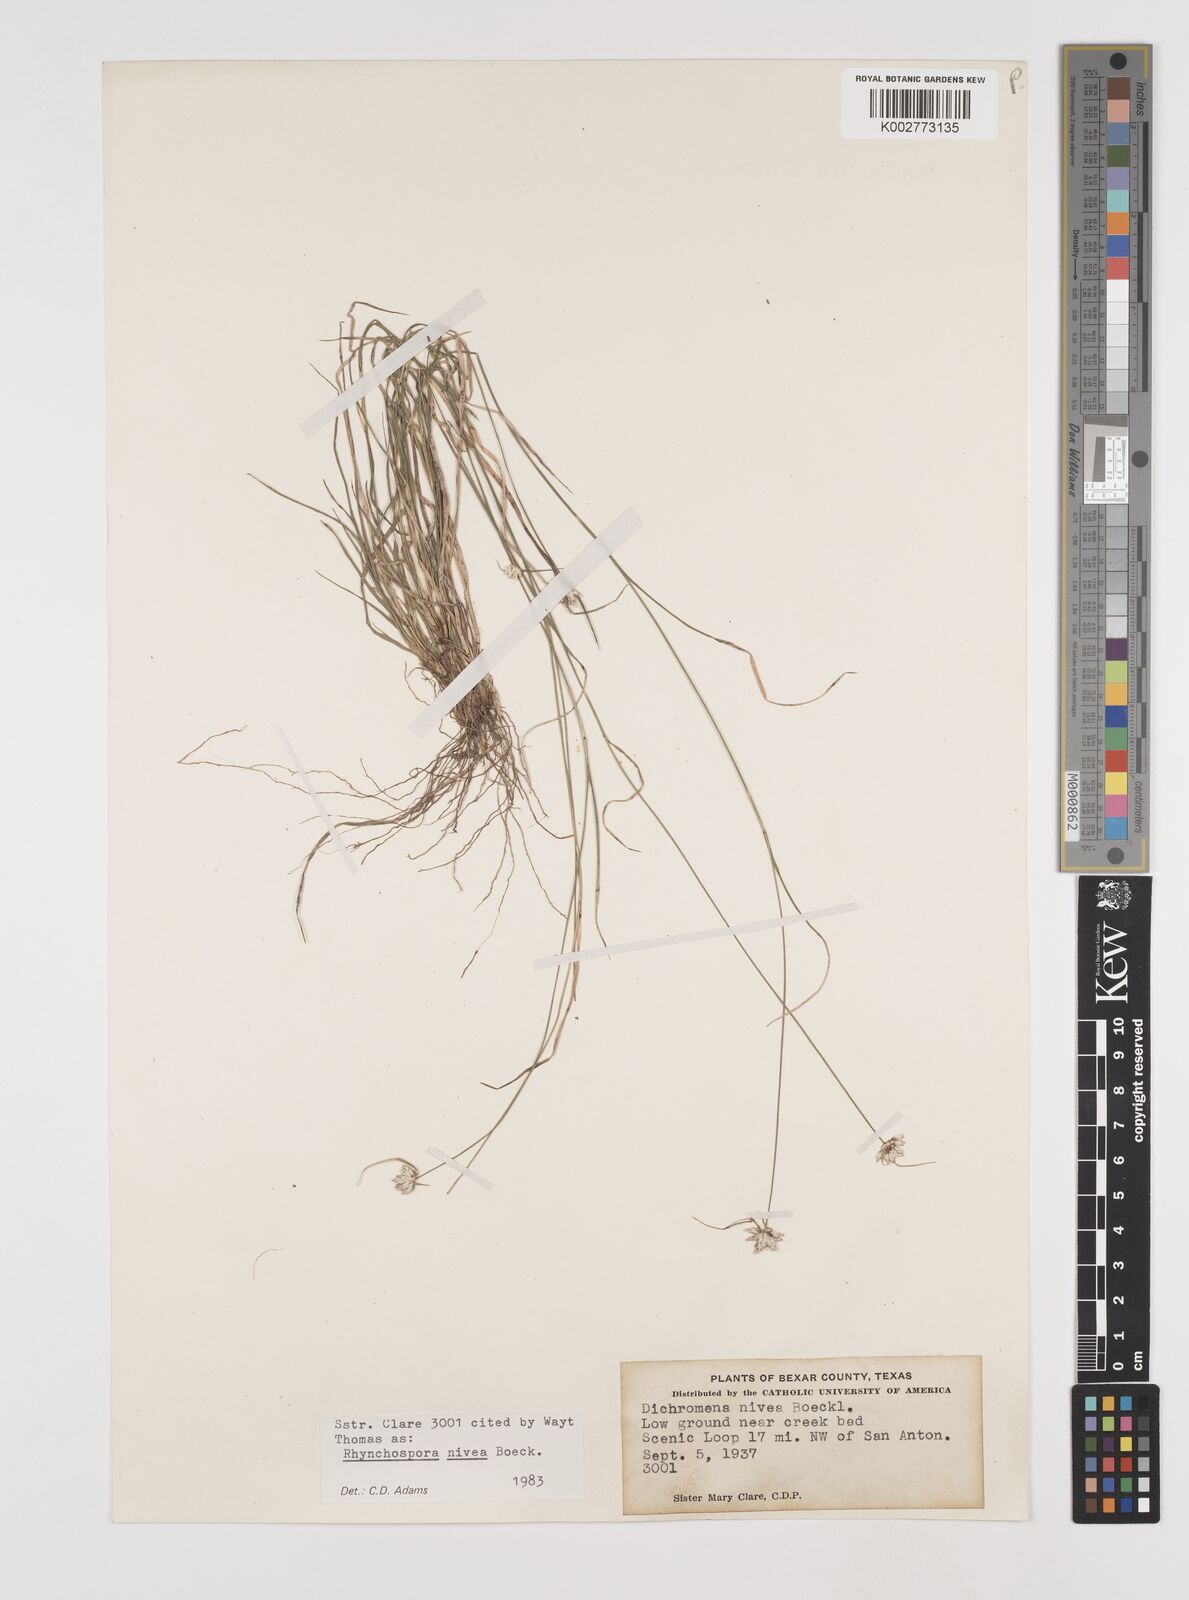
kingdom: Plantae
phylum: Tracheophyta
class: Liliopsida
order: Poales
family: Cyperaceae
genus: Rhynchospora
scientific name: Rhynchospora nivea
